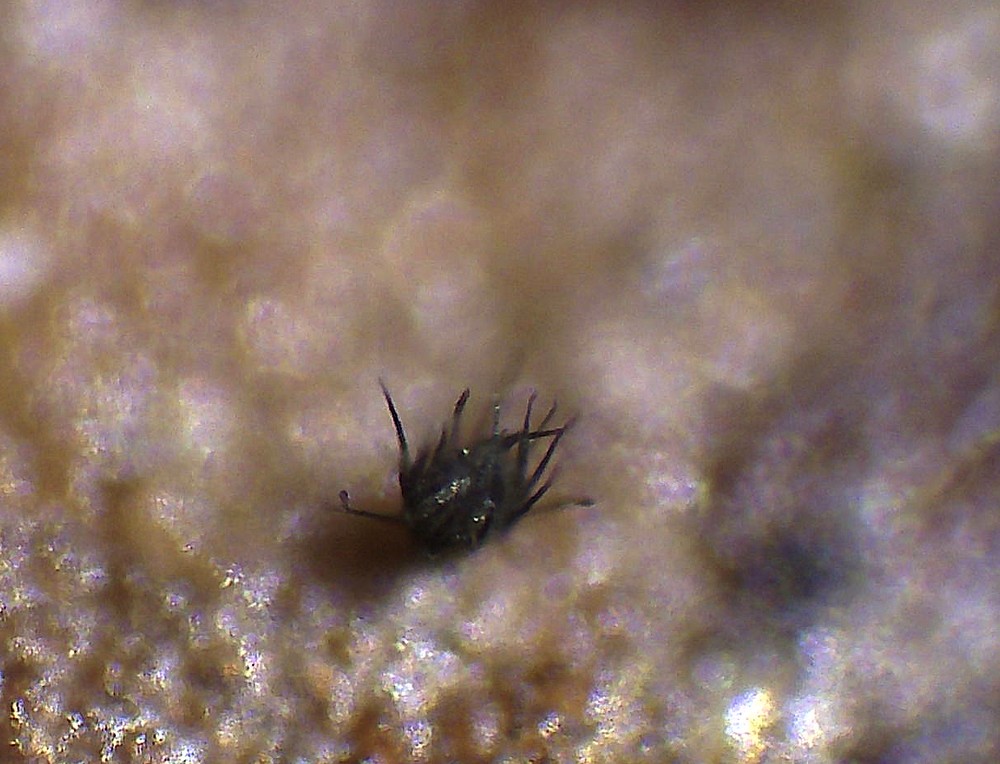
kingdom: Fungi
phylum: Ascomycota
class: Leotiomycetes
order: Helotiales
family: Hyphodiscaceae
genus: Venturiocistella
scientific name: Venturiocistella pini
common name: fyrre-tveskægskive
